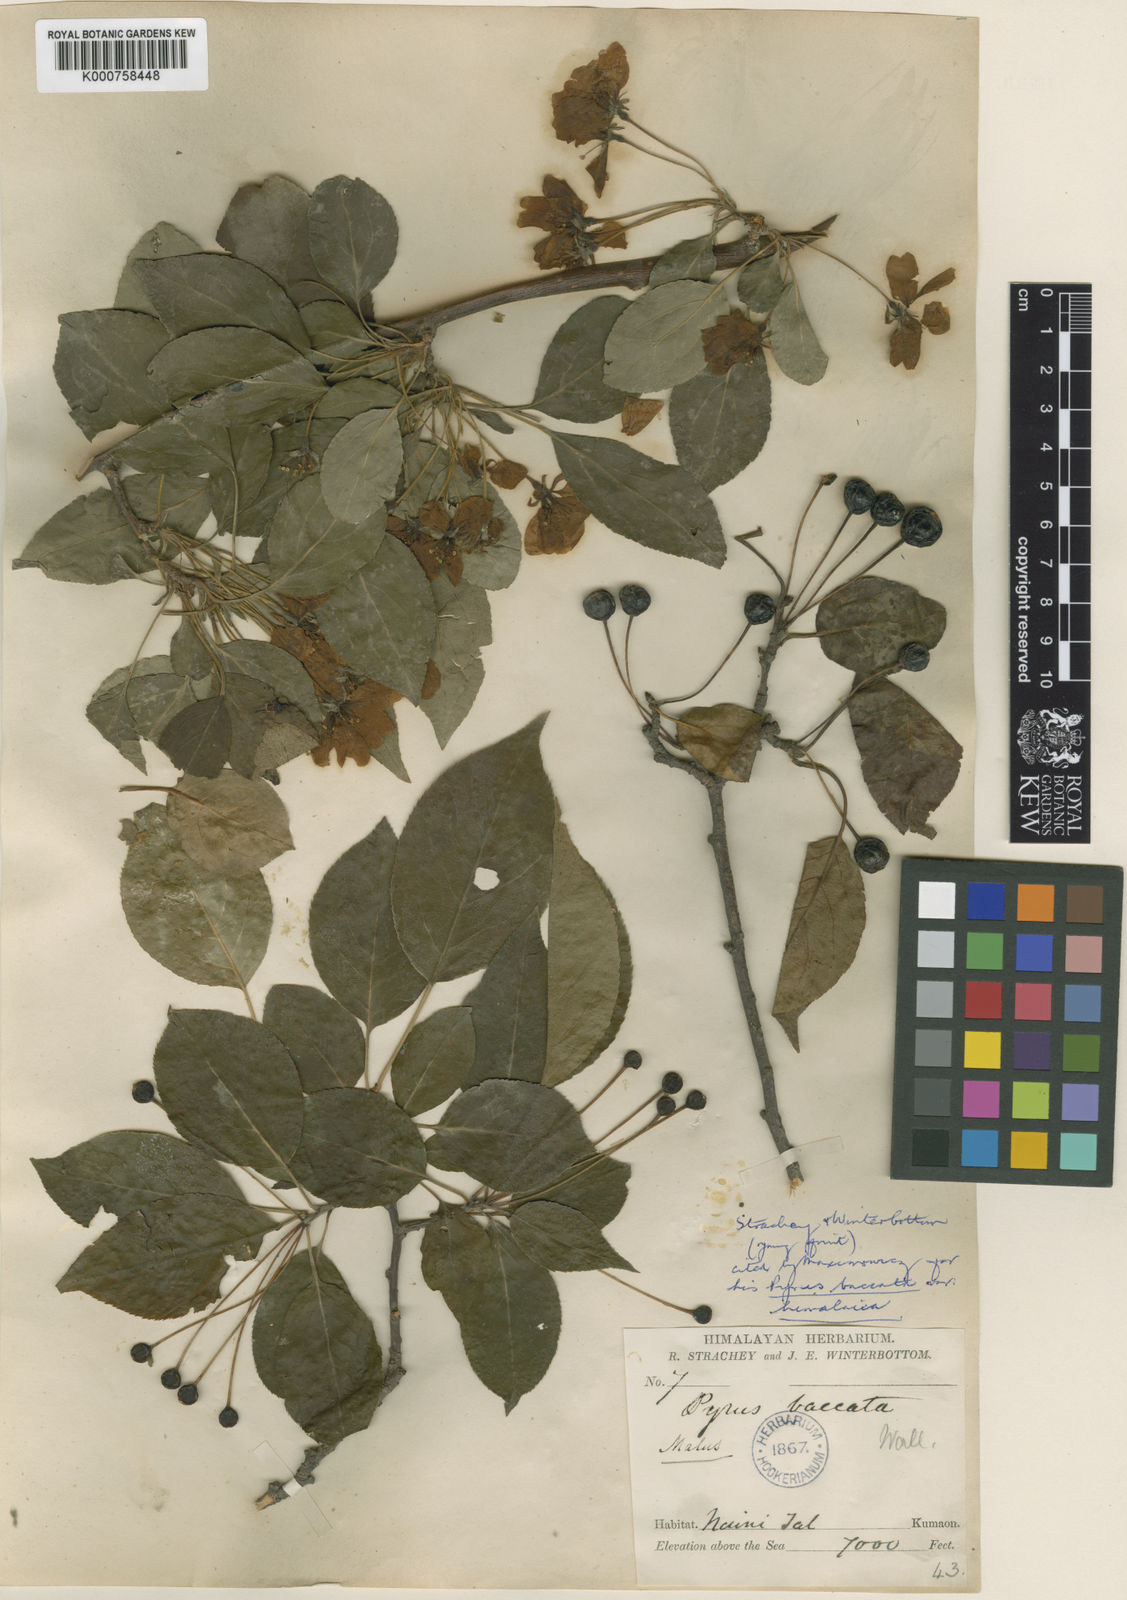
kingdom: Plantae
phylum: Tracheophyta
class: Magnoliopsida
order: Rosales
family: Rosaceae
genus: Malus
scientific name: Malus rockii
